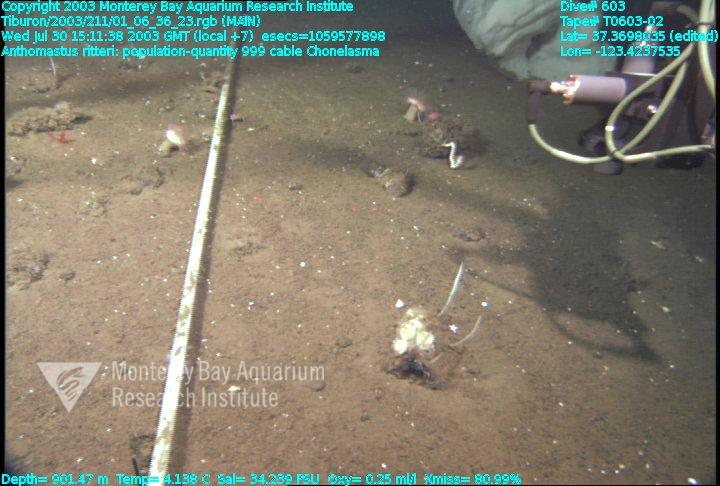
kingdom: Animalia
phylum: Porifera
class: Hexactinellida
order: Sceptrulophora
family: Euretidae
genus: Chonelasma
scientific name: Chonelasma
